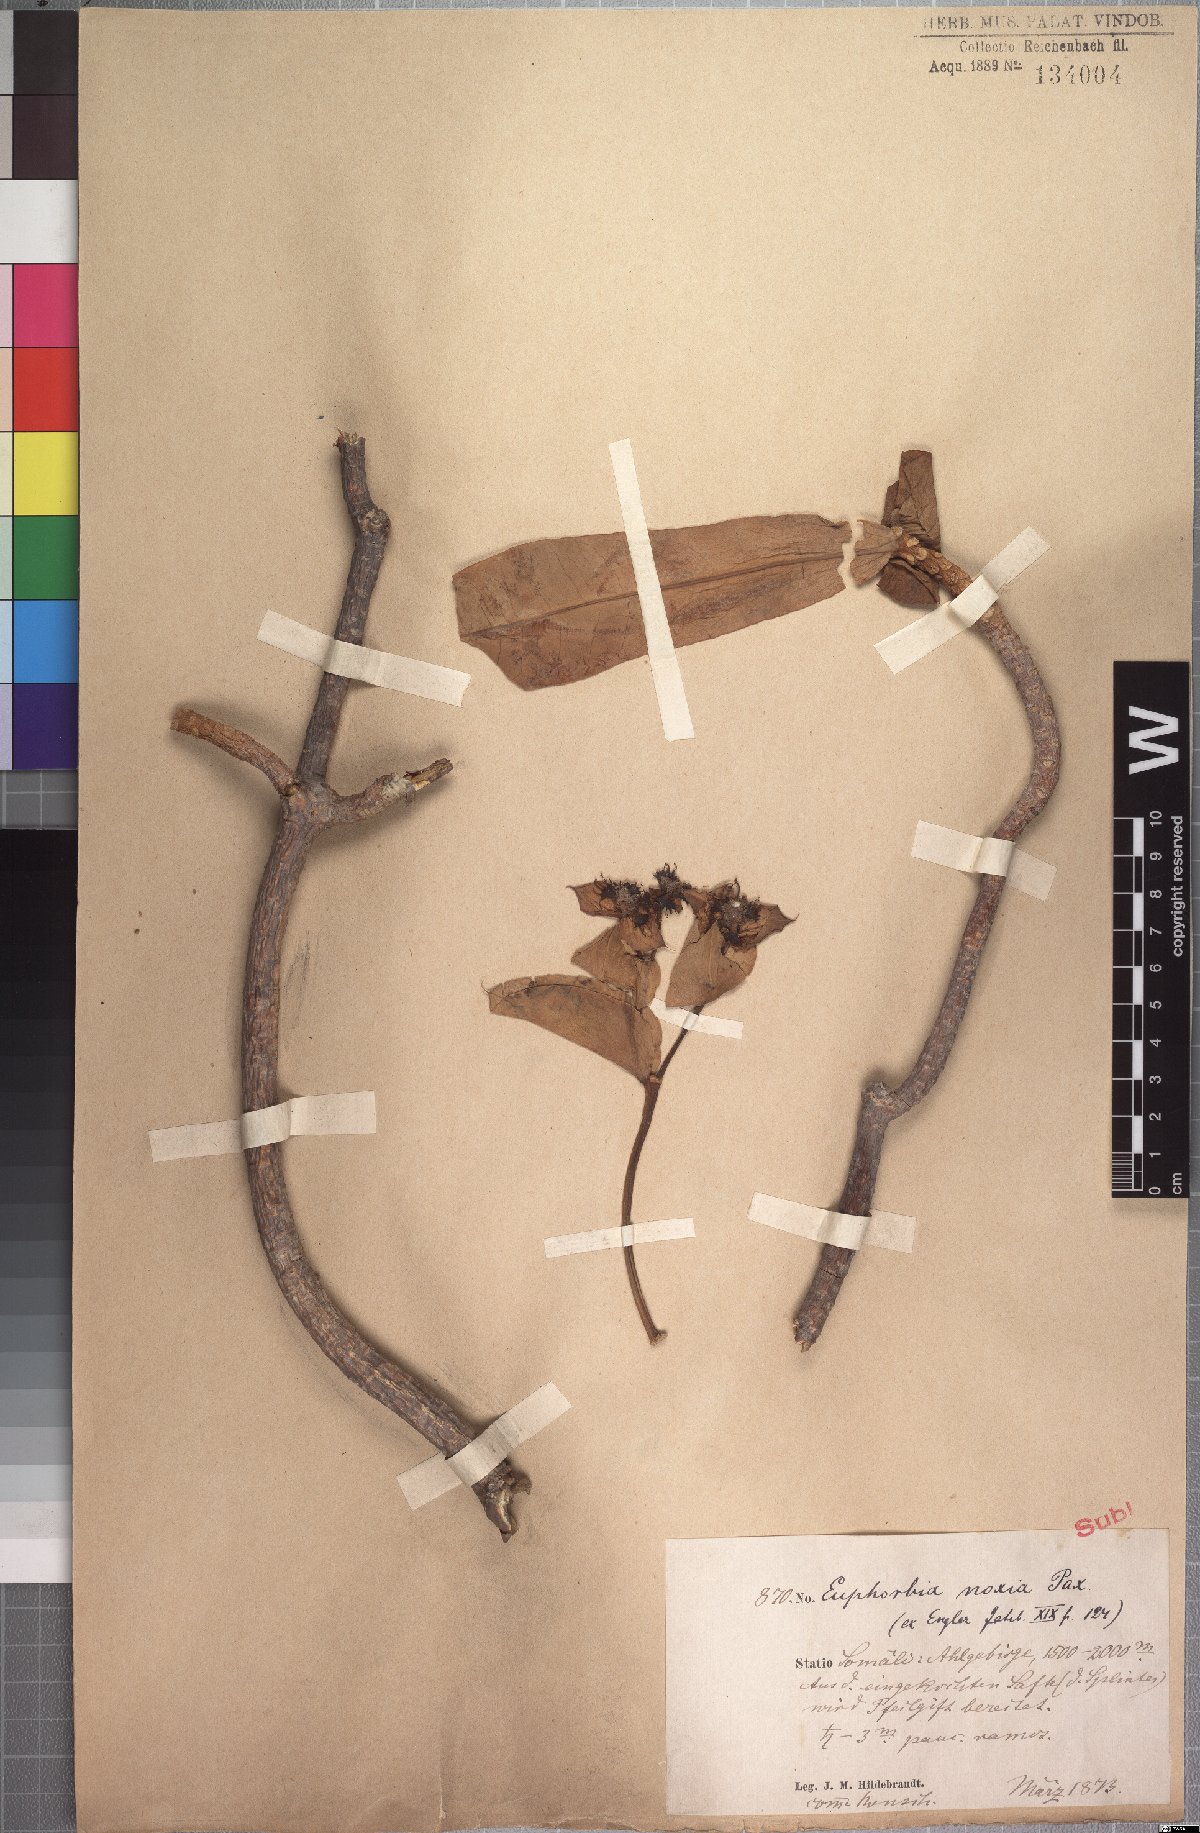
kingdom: Plantae
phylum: Tracheophyta
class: Magnoliopsida
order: Malpighiales
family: Euphorbiaceae
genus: Euphorbia
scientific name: Euphorbia noxia
